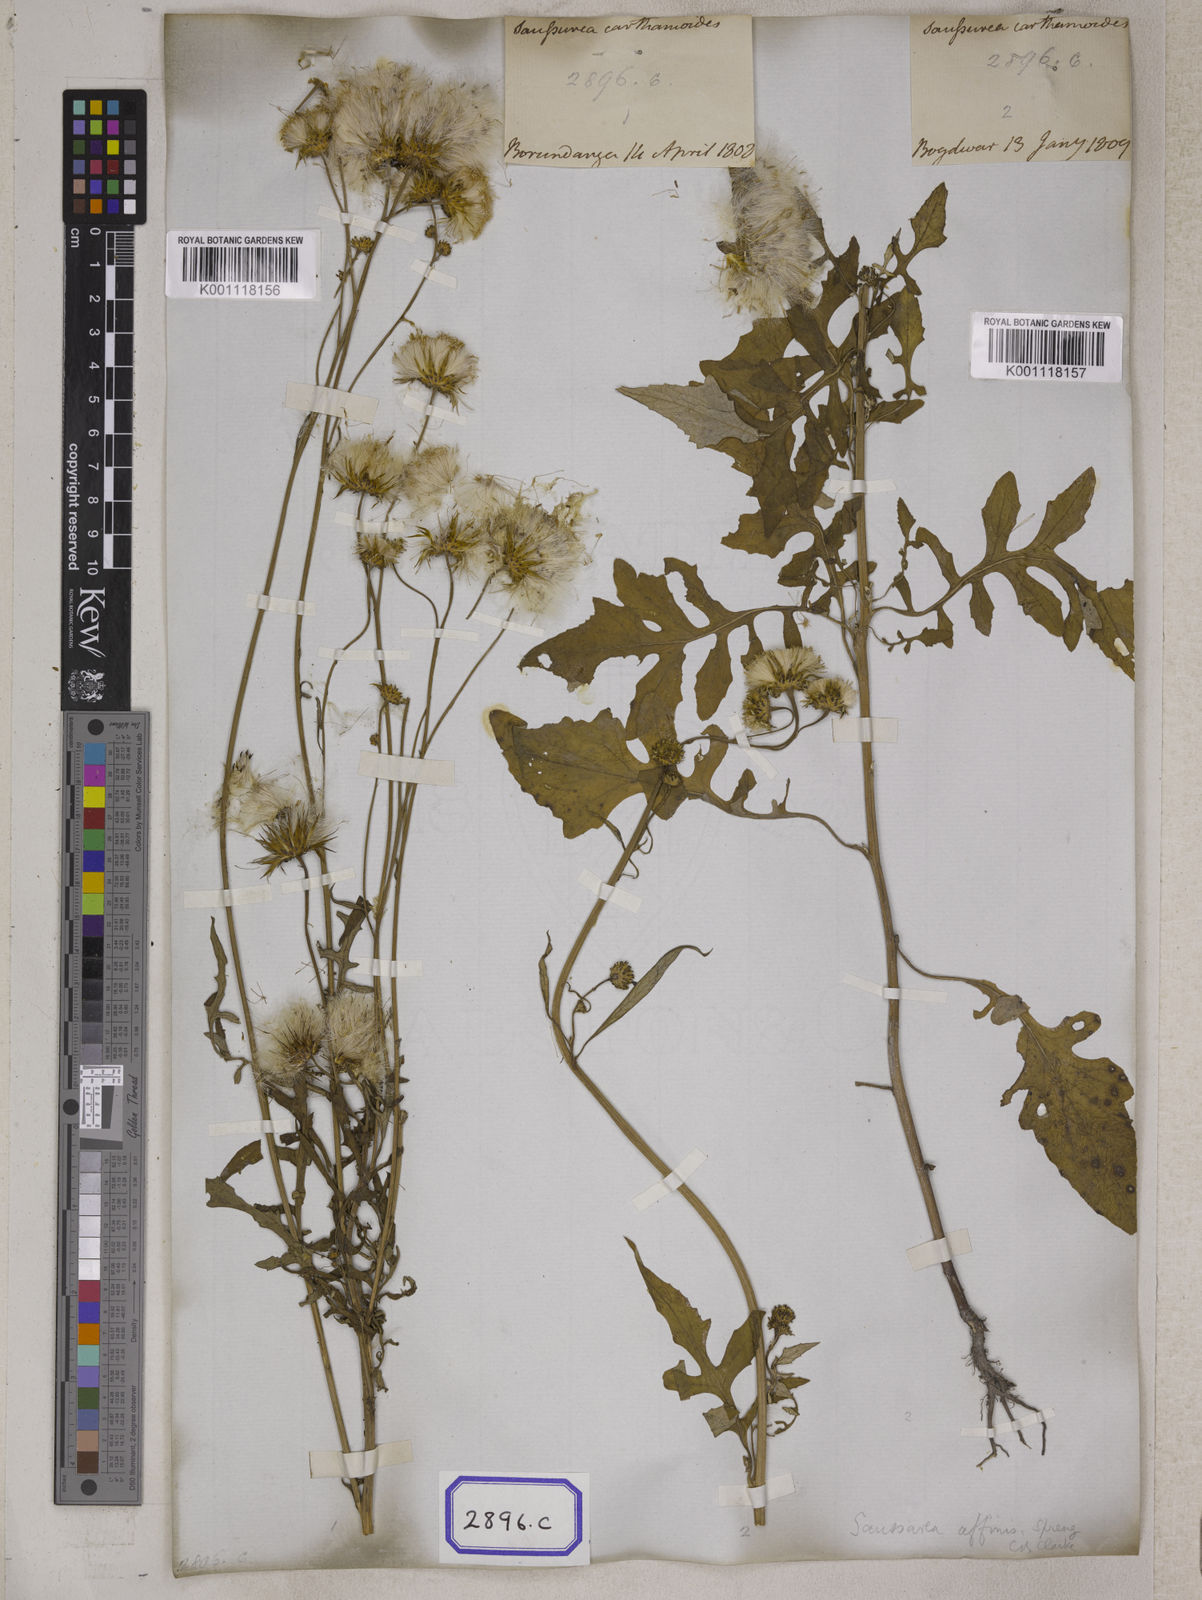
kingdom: Plantae
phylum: Tracheophyta
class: Magnoliopsida
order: Asterales
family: Asteraceae
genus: Saussurea
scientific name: Saussurea lyrata
